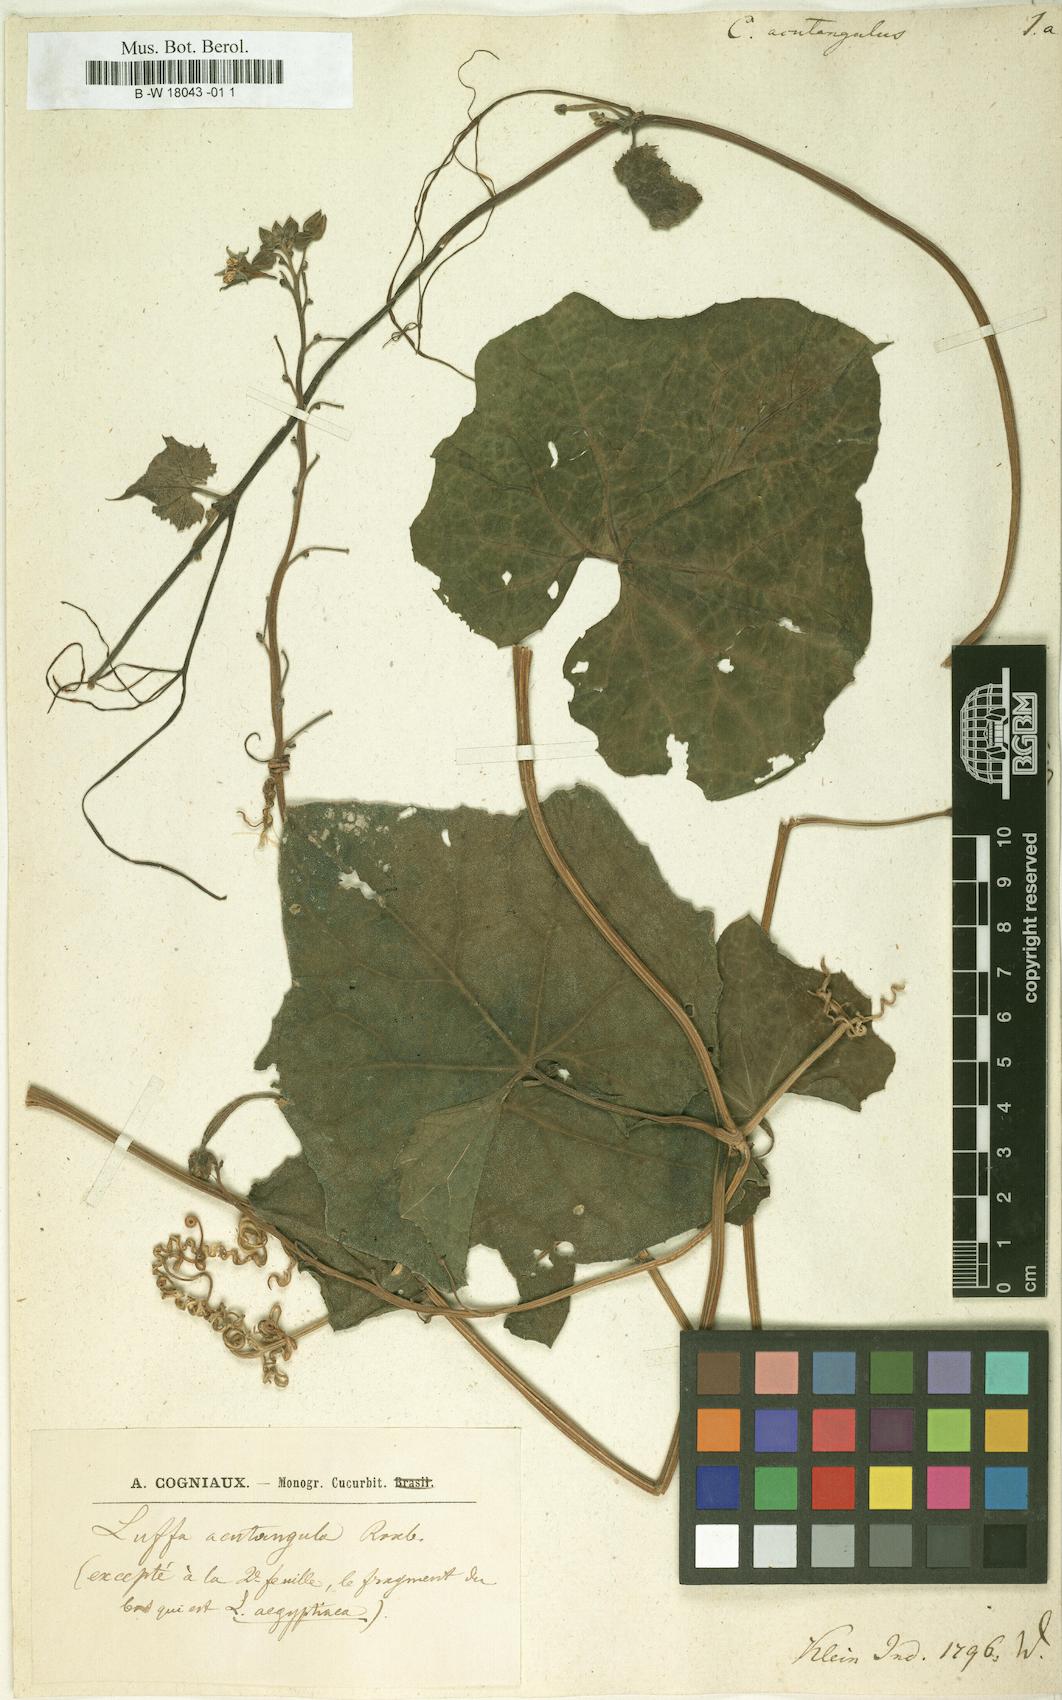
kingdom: Plantae
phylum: Tracheophyta
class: Magnoliopsida
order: Cucurbitales
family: Cucurbitaceae
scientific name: Cucurbitaceae
